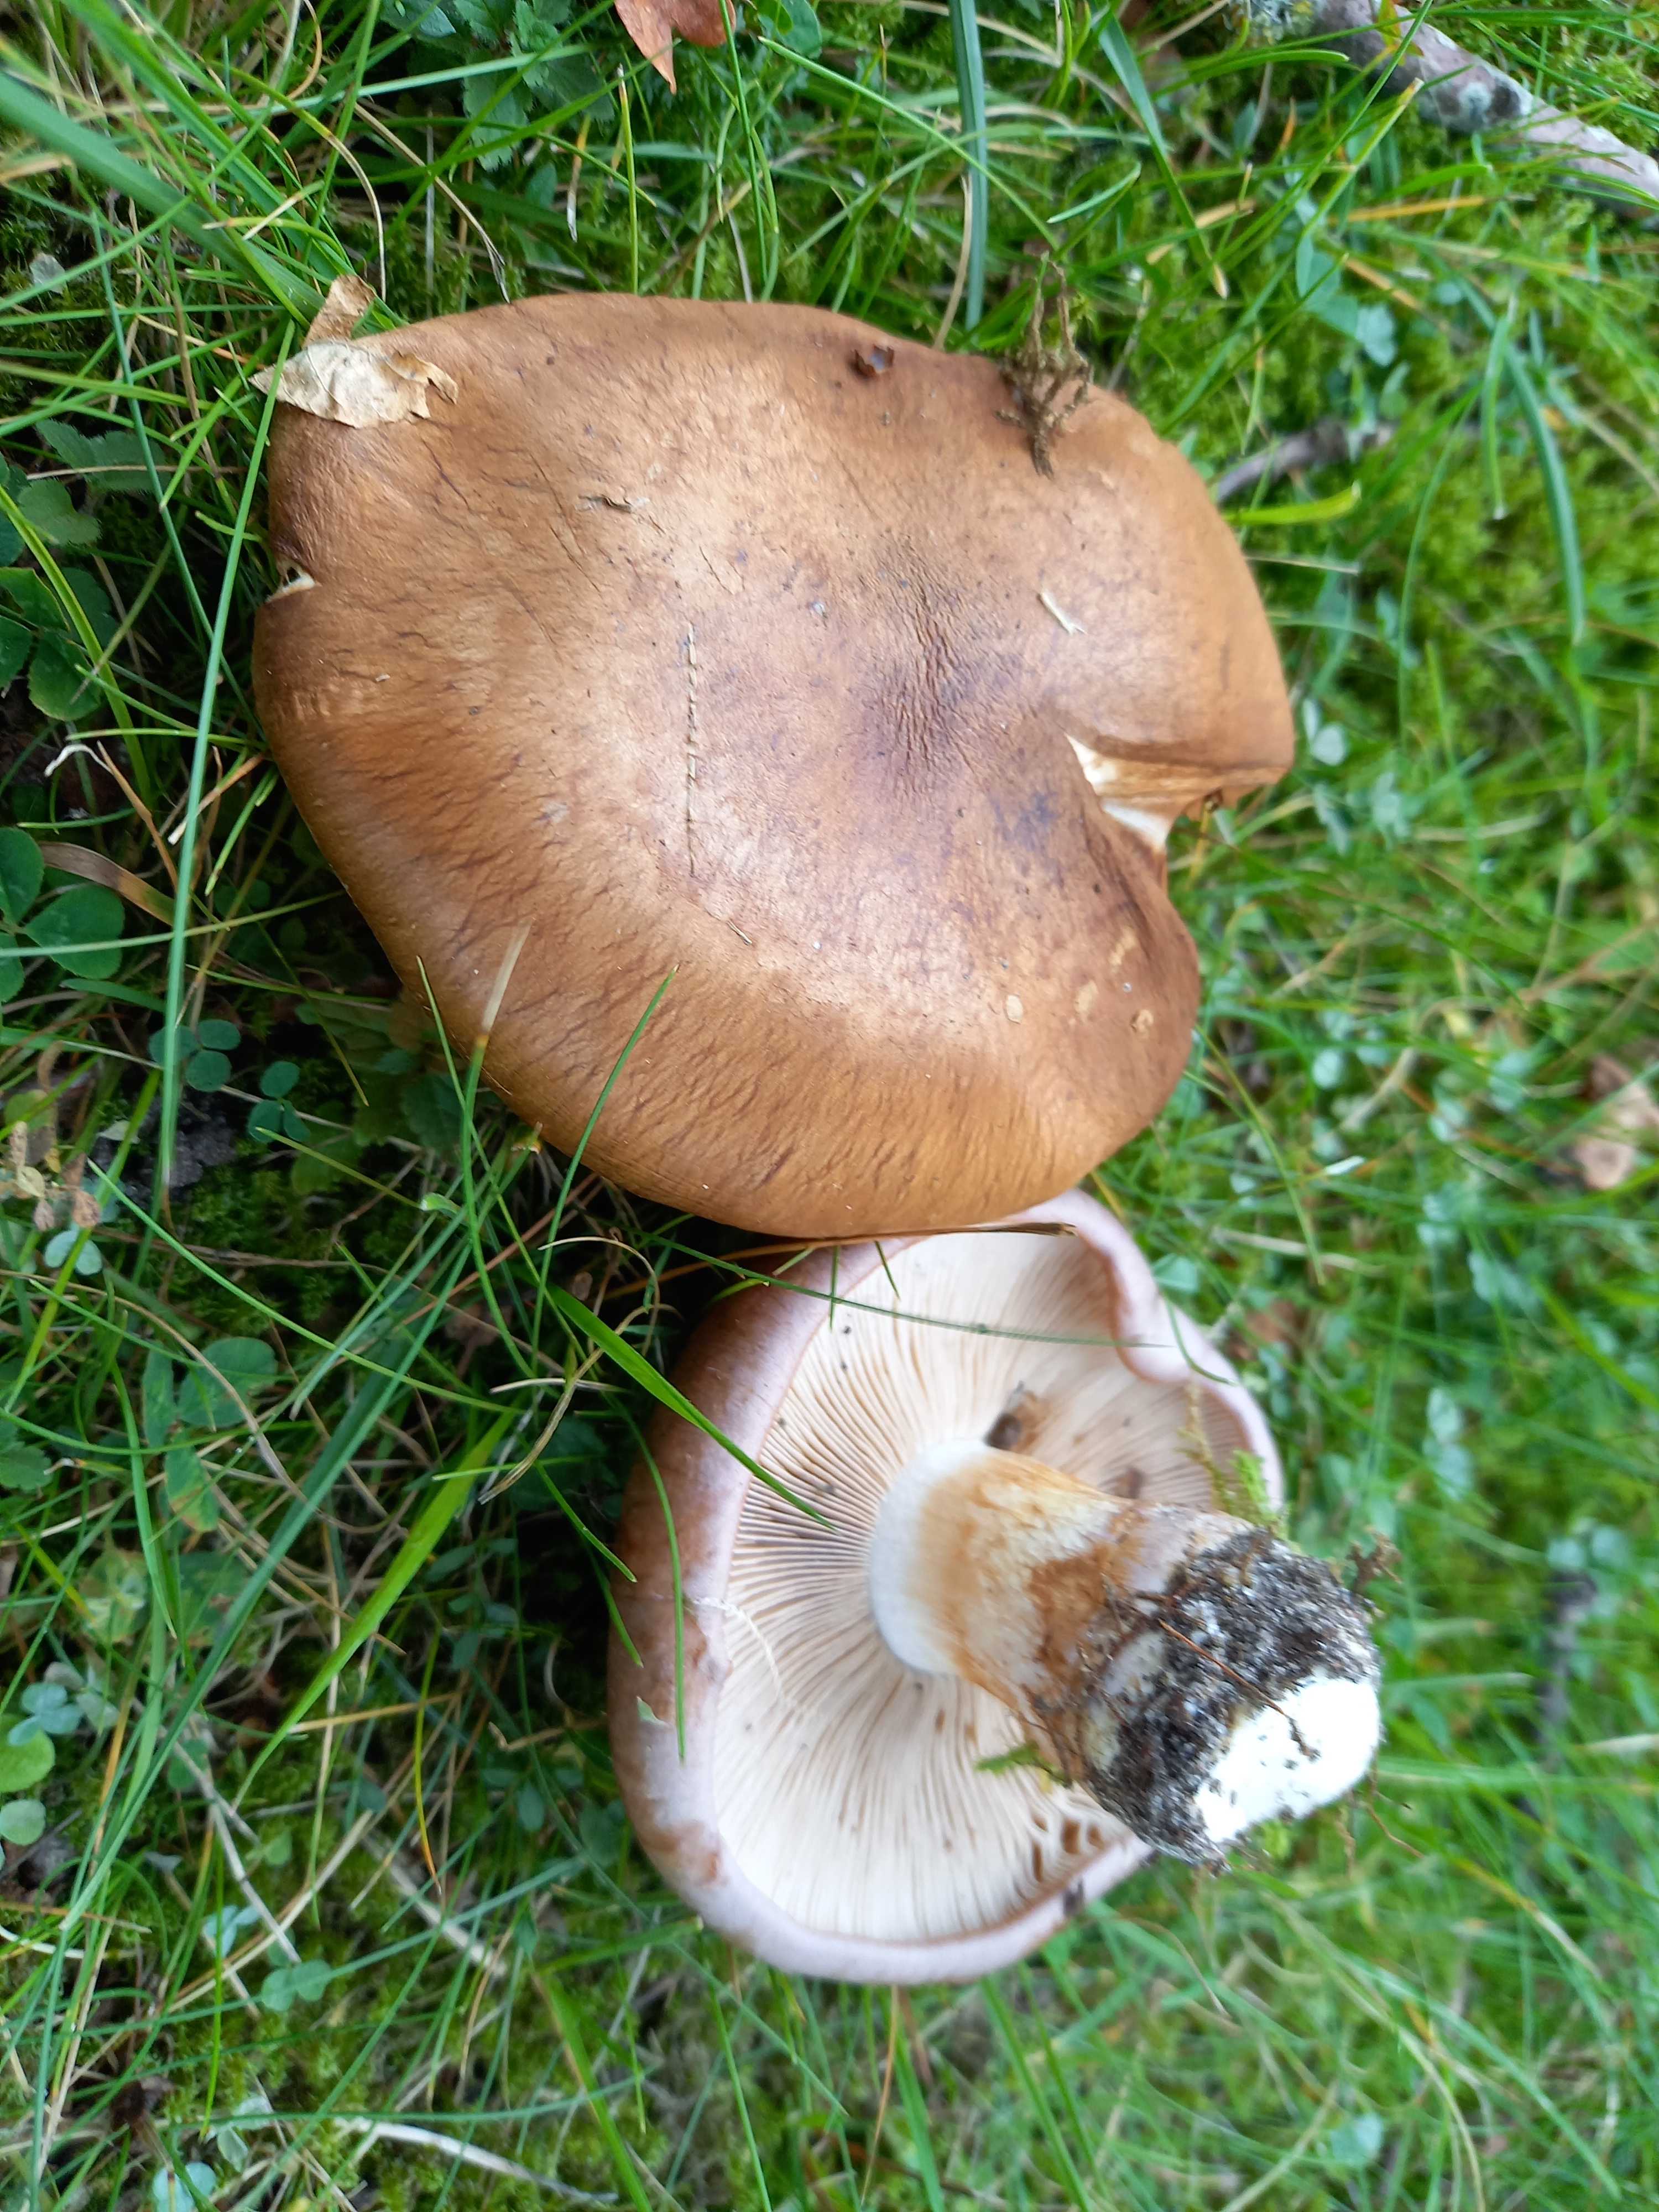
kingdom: Fungi
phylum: Basidiomycota
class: Agaricomycetes
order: Agaricales
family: Cortinariaceae
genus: Phlegmacium
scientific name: Phlegmacium balteatocumatile
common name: violettrådet slørhat
